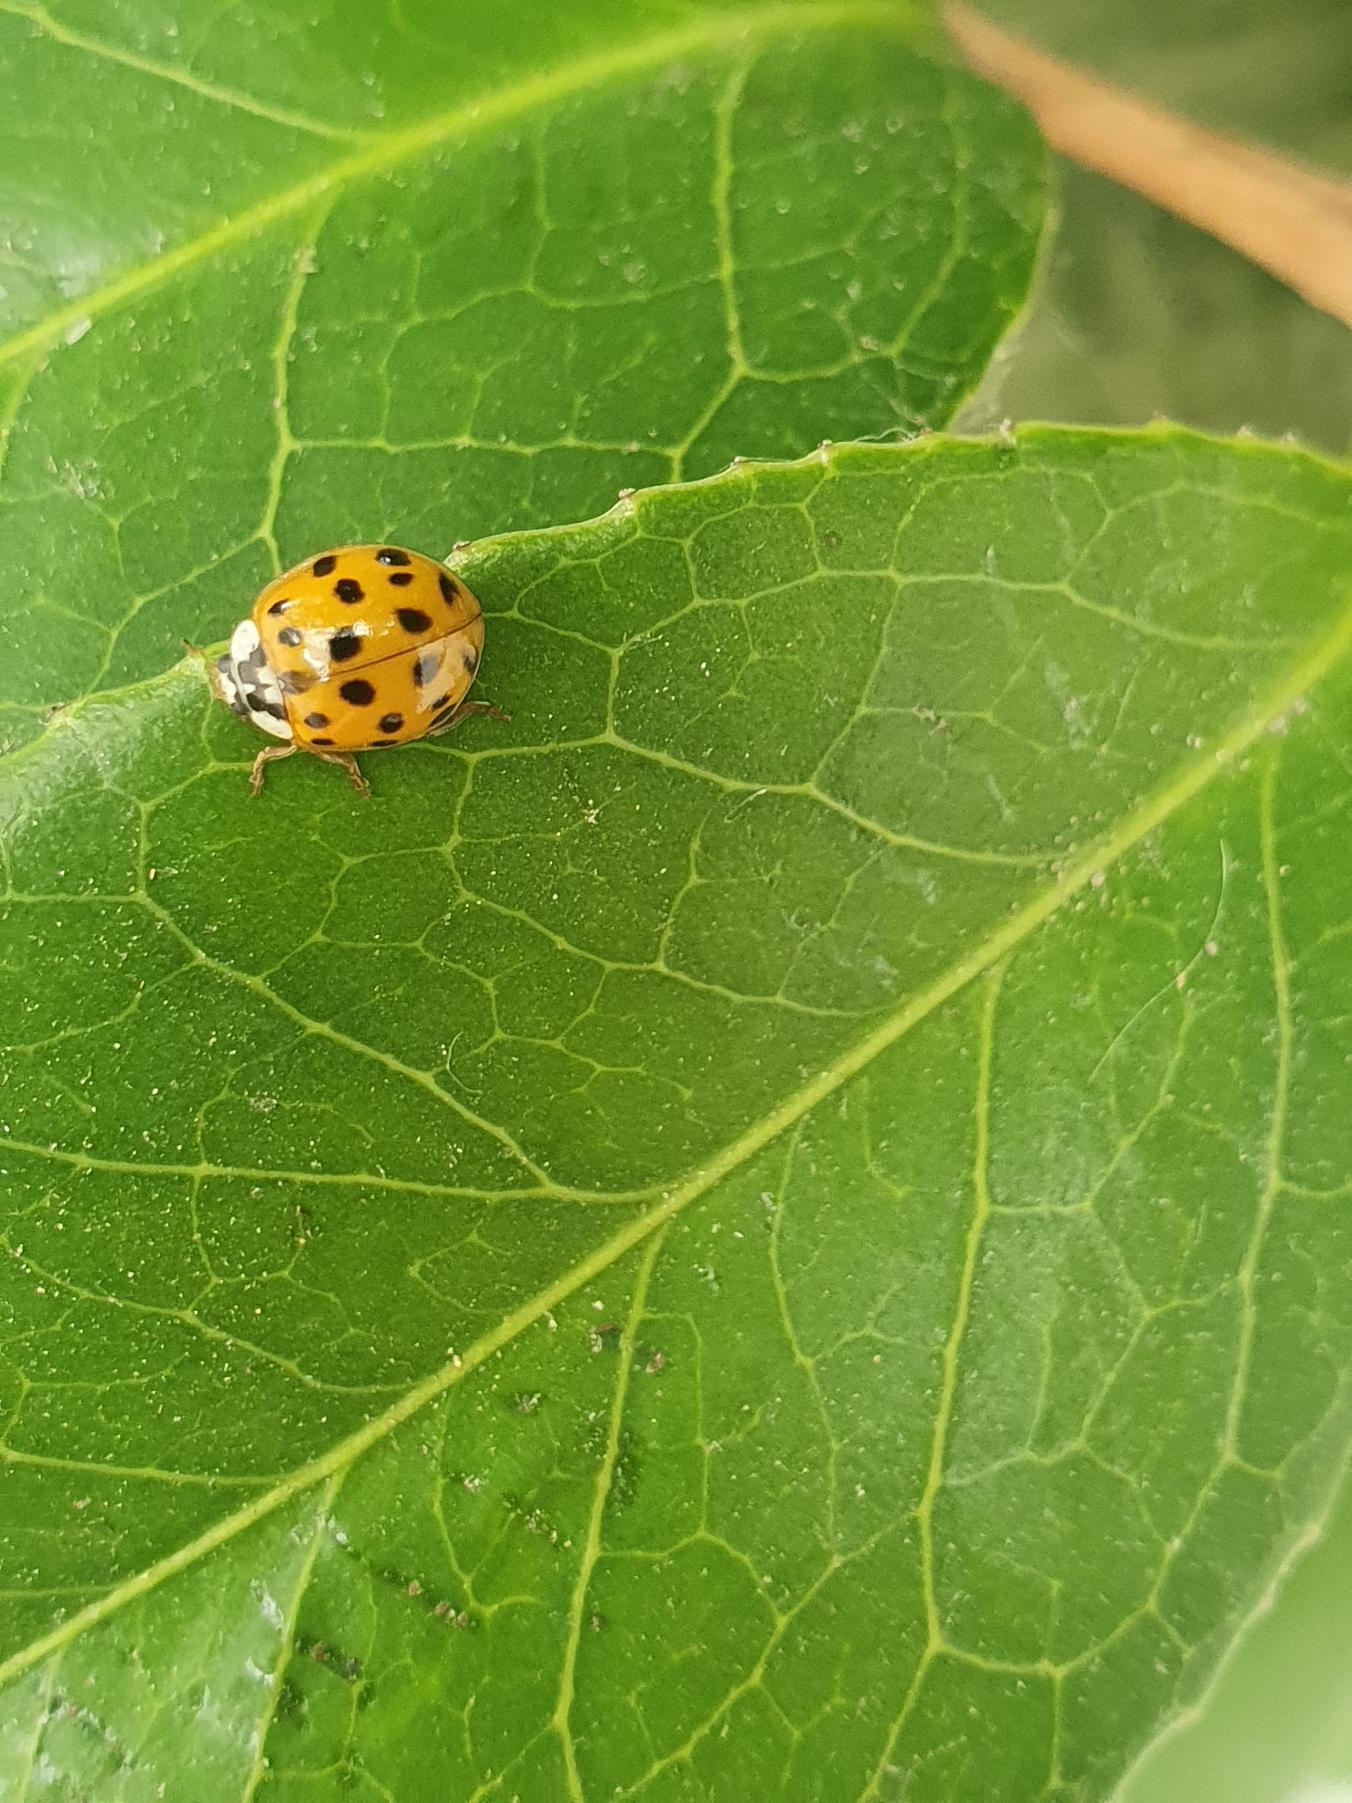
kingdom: Animalia
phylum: Arthropoda
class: Insecta
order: Coleoptera
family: Coccinellidae
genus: Harmonia
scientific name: Harmonia axyridis
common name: Harlekinmariehøne
